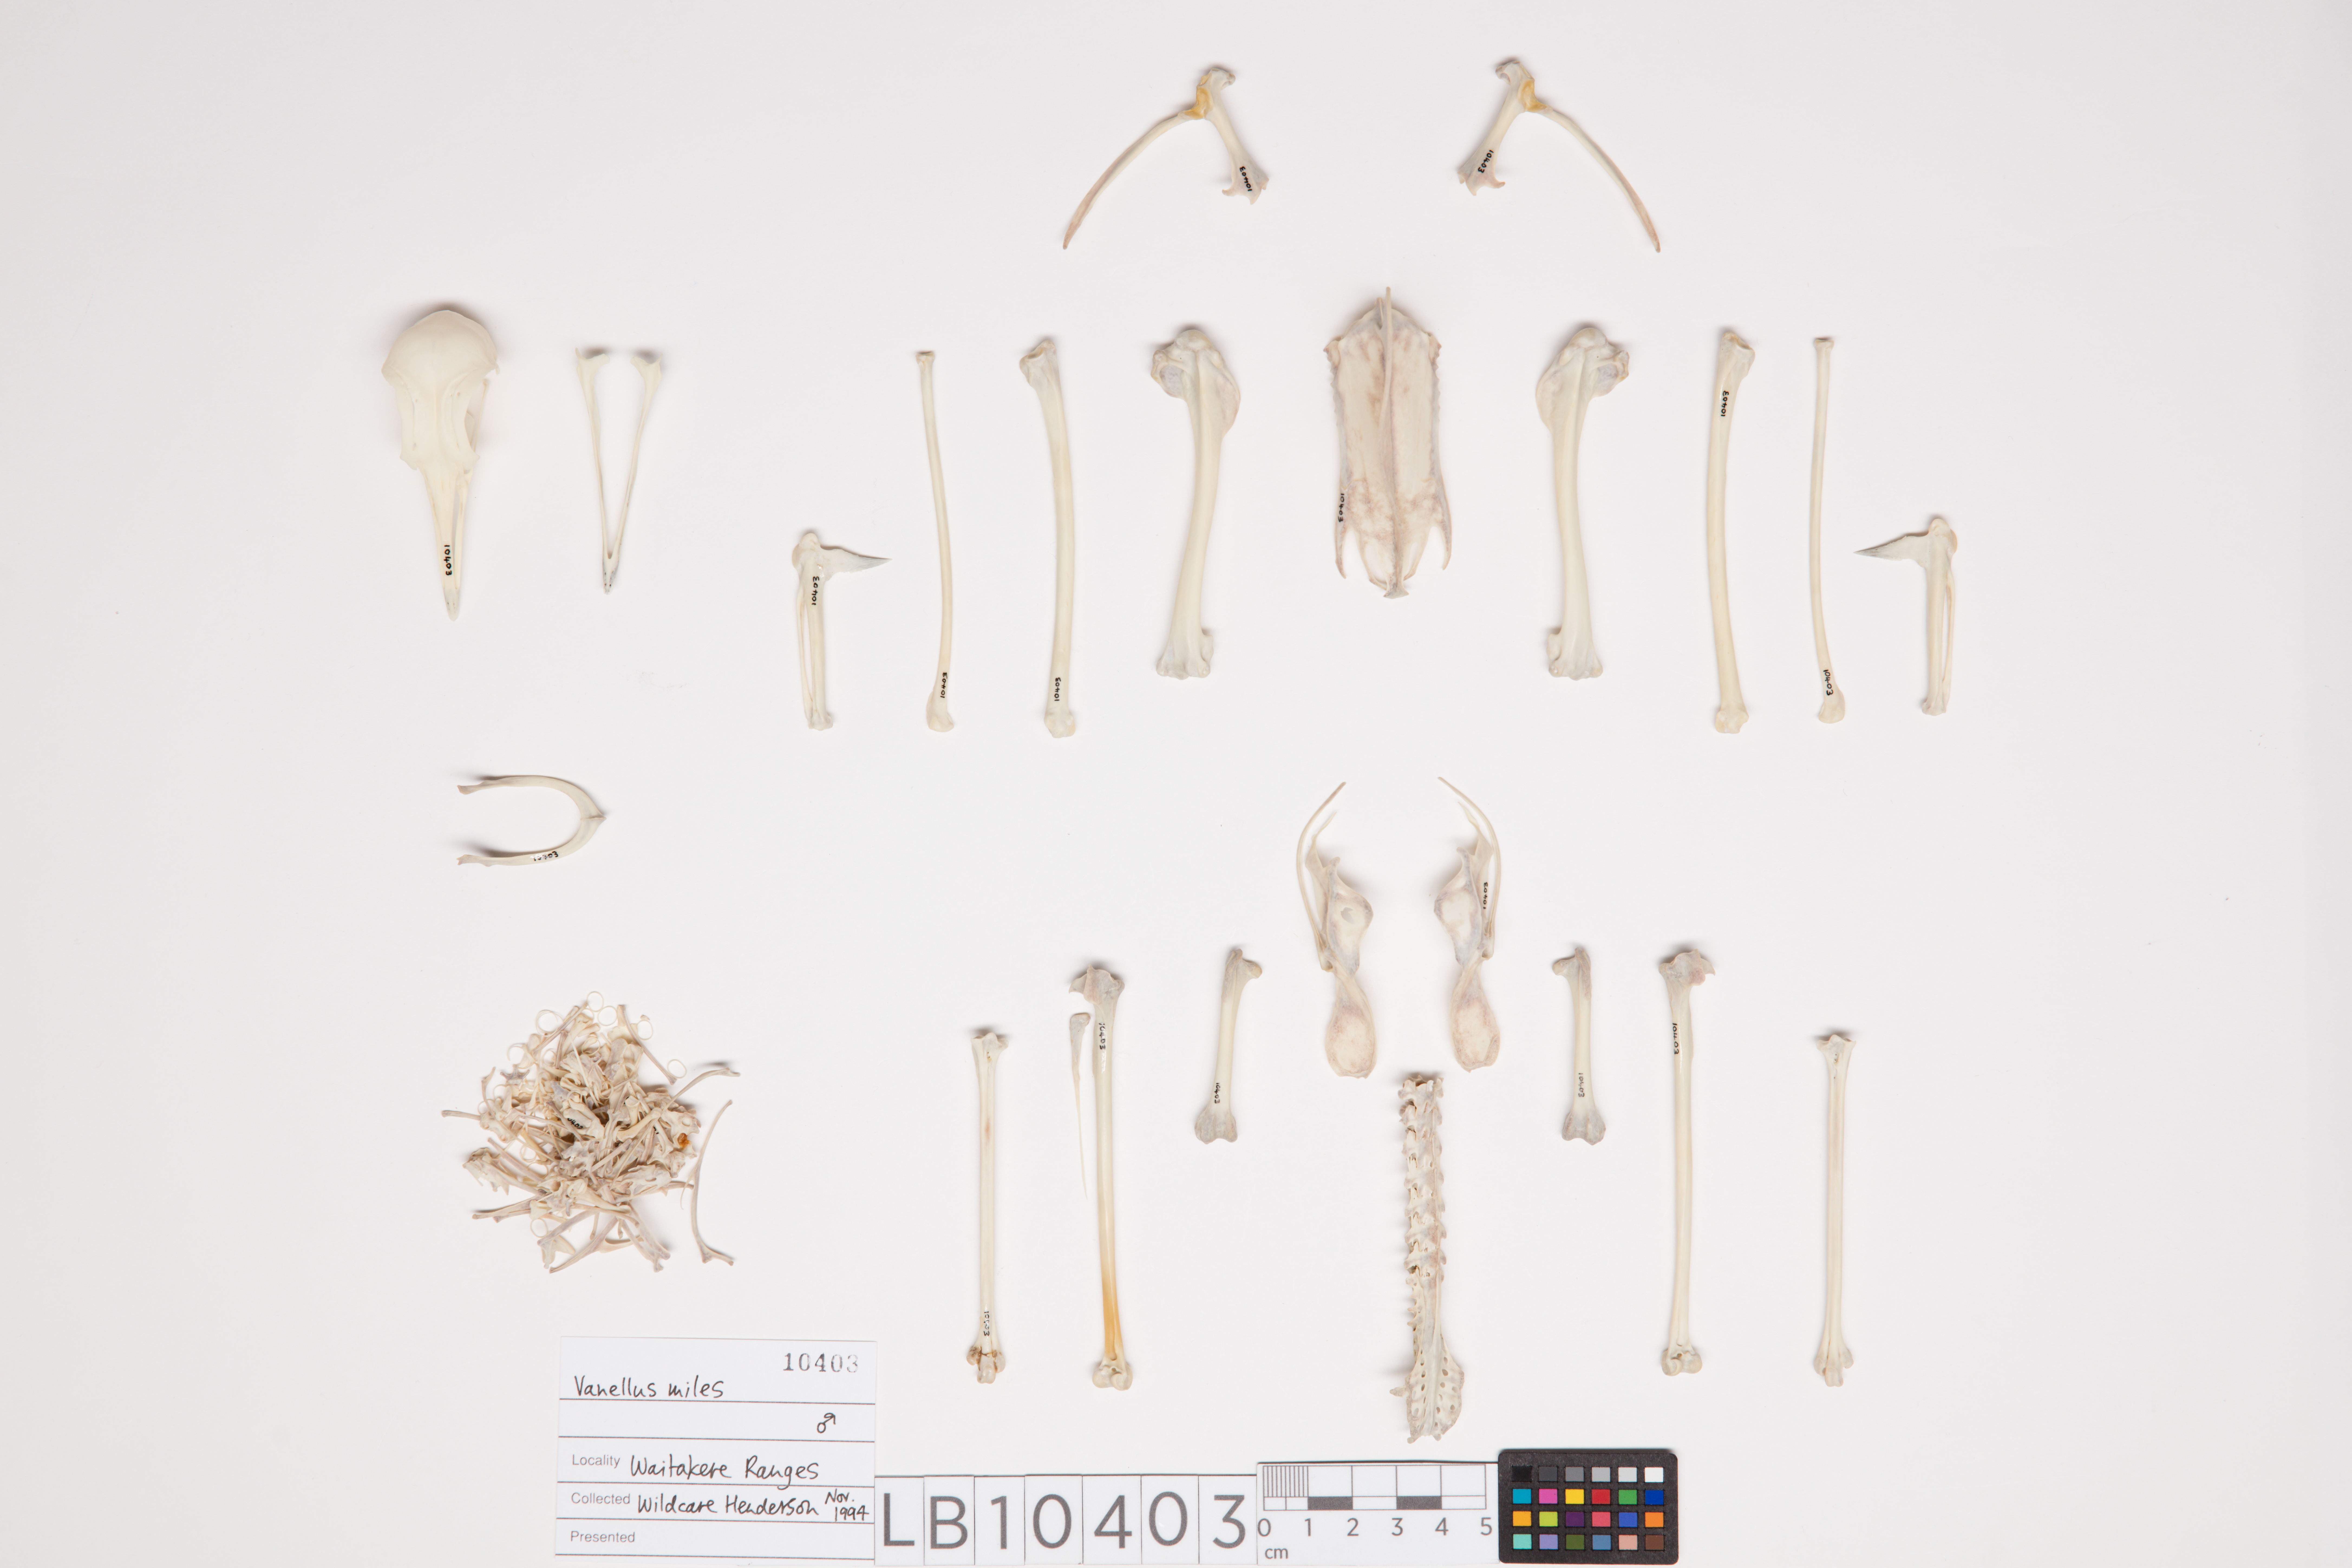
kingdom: Animalia
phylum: Chordata
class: Aves
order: Charadriiformes
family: Charadriidae
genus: Vanellus
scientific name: Vanellus miles
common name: Masked lapwing
